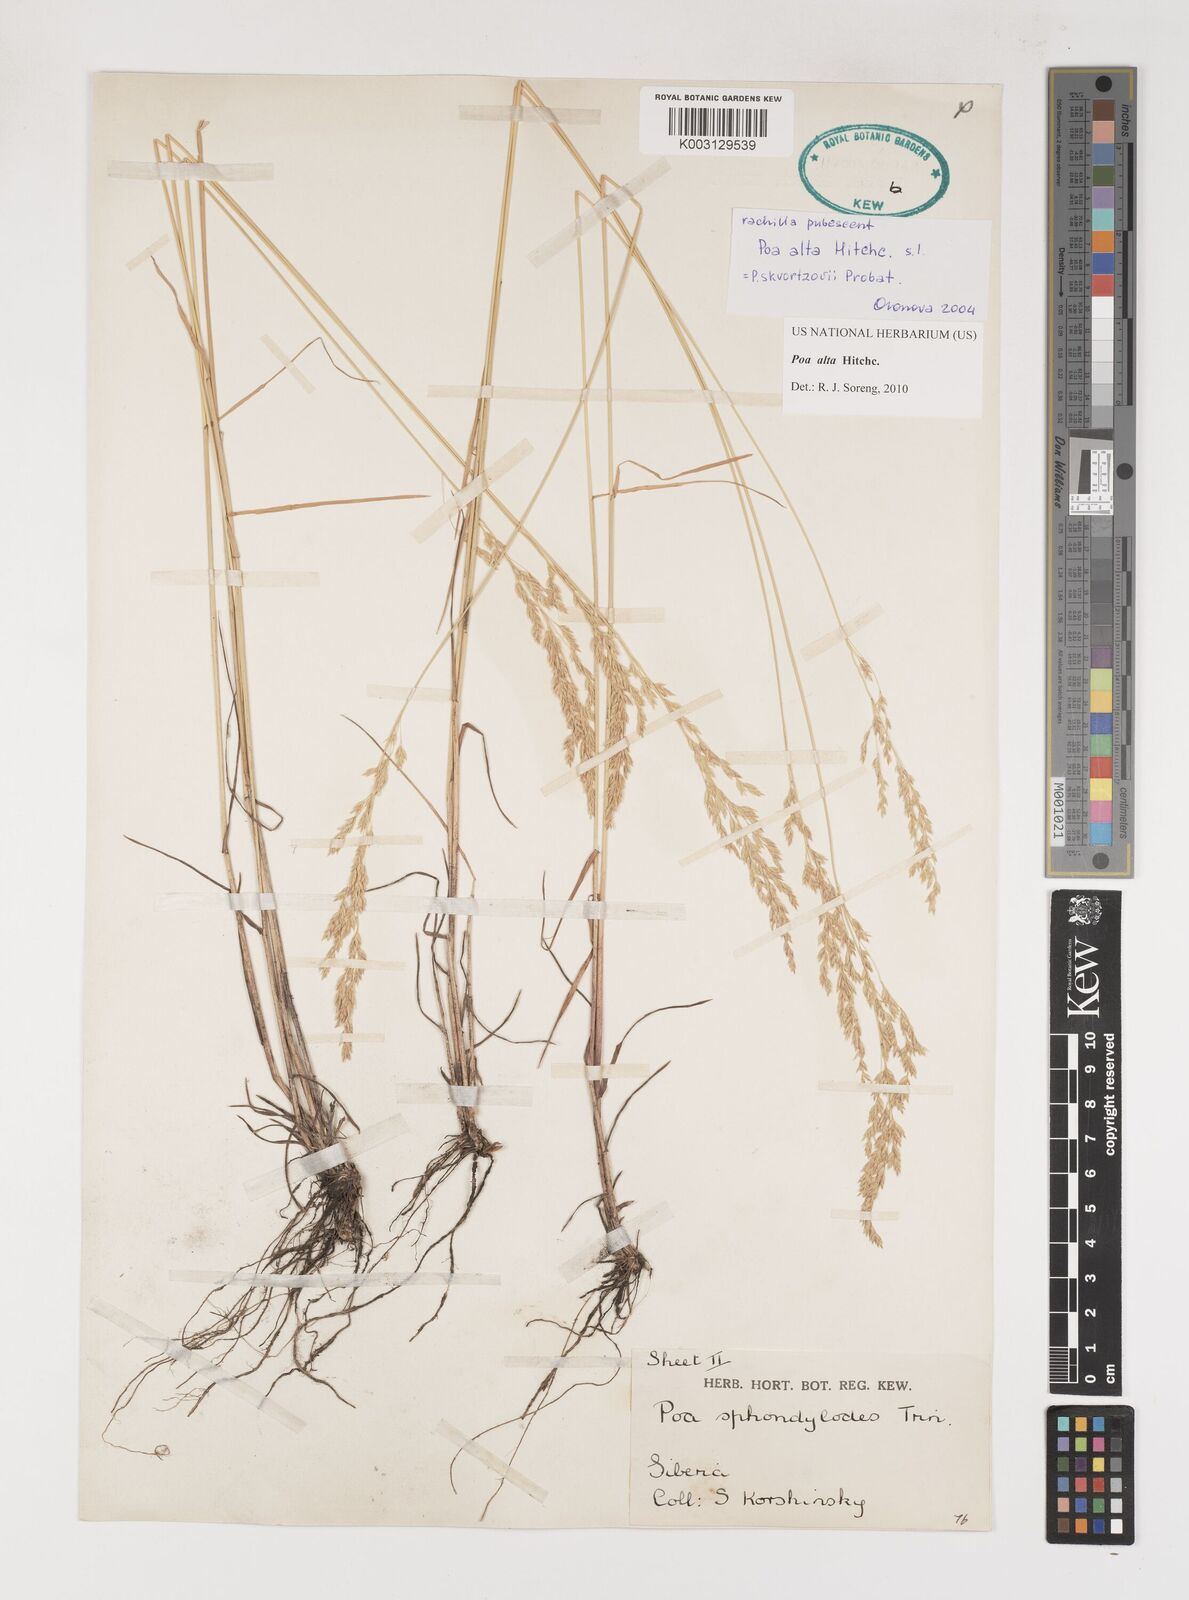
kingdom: Plantae
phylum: Tracheophyta
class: Liliopsida
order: Poales
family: Poaceae
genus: Poa
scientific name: Poa alta
